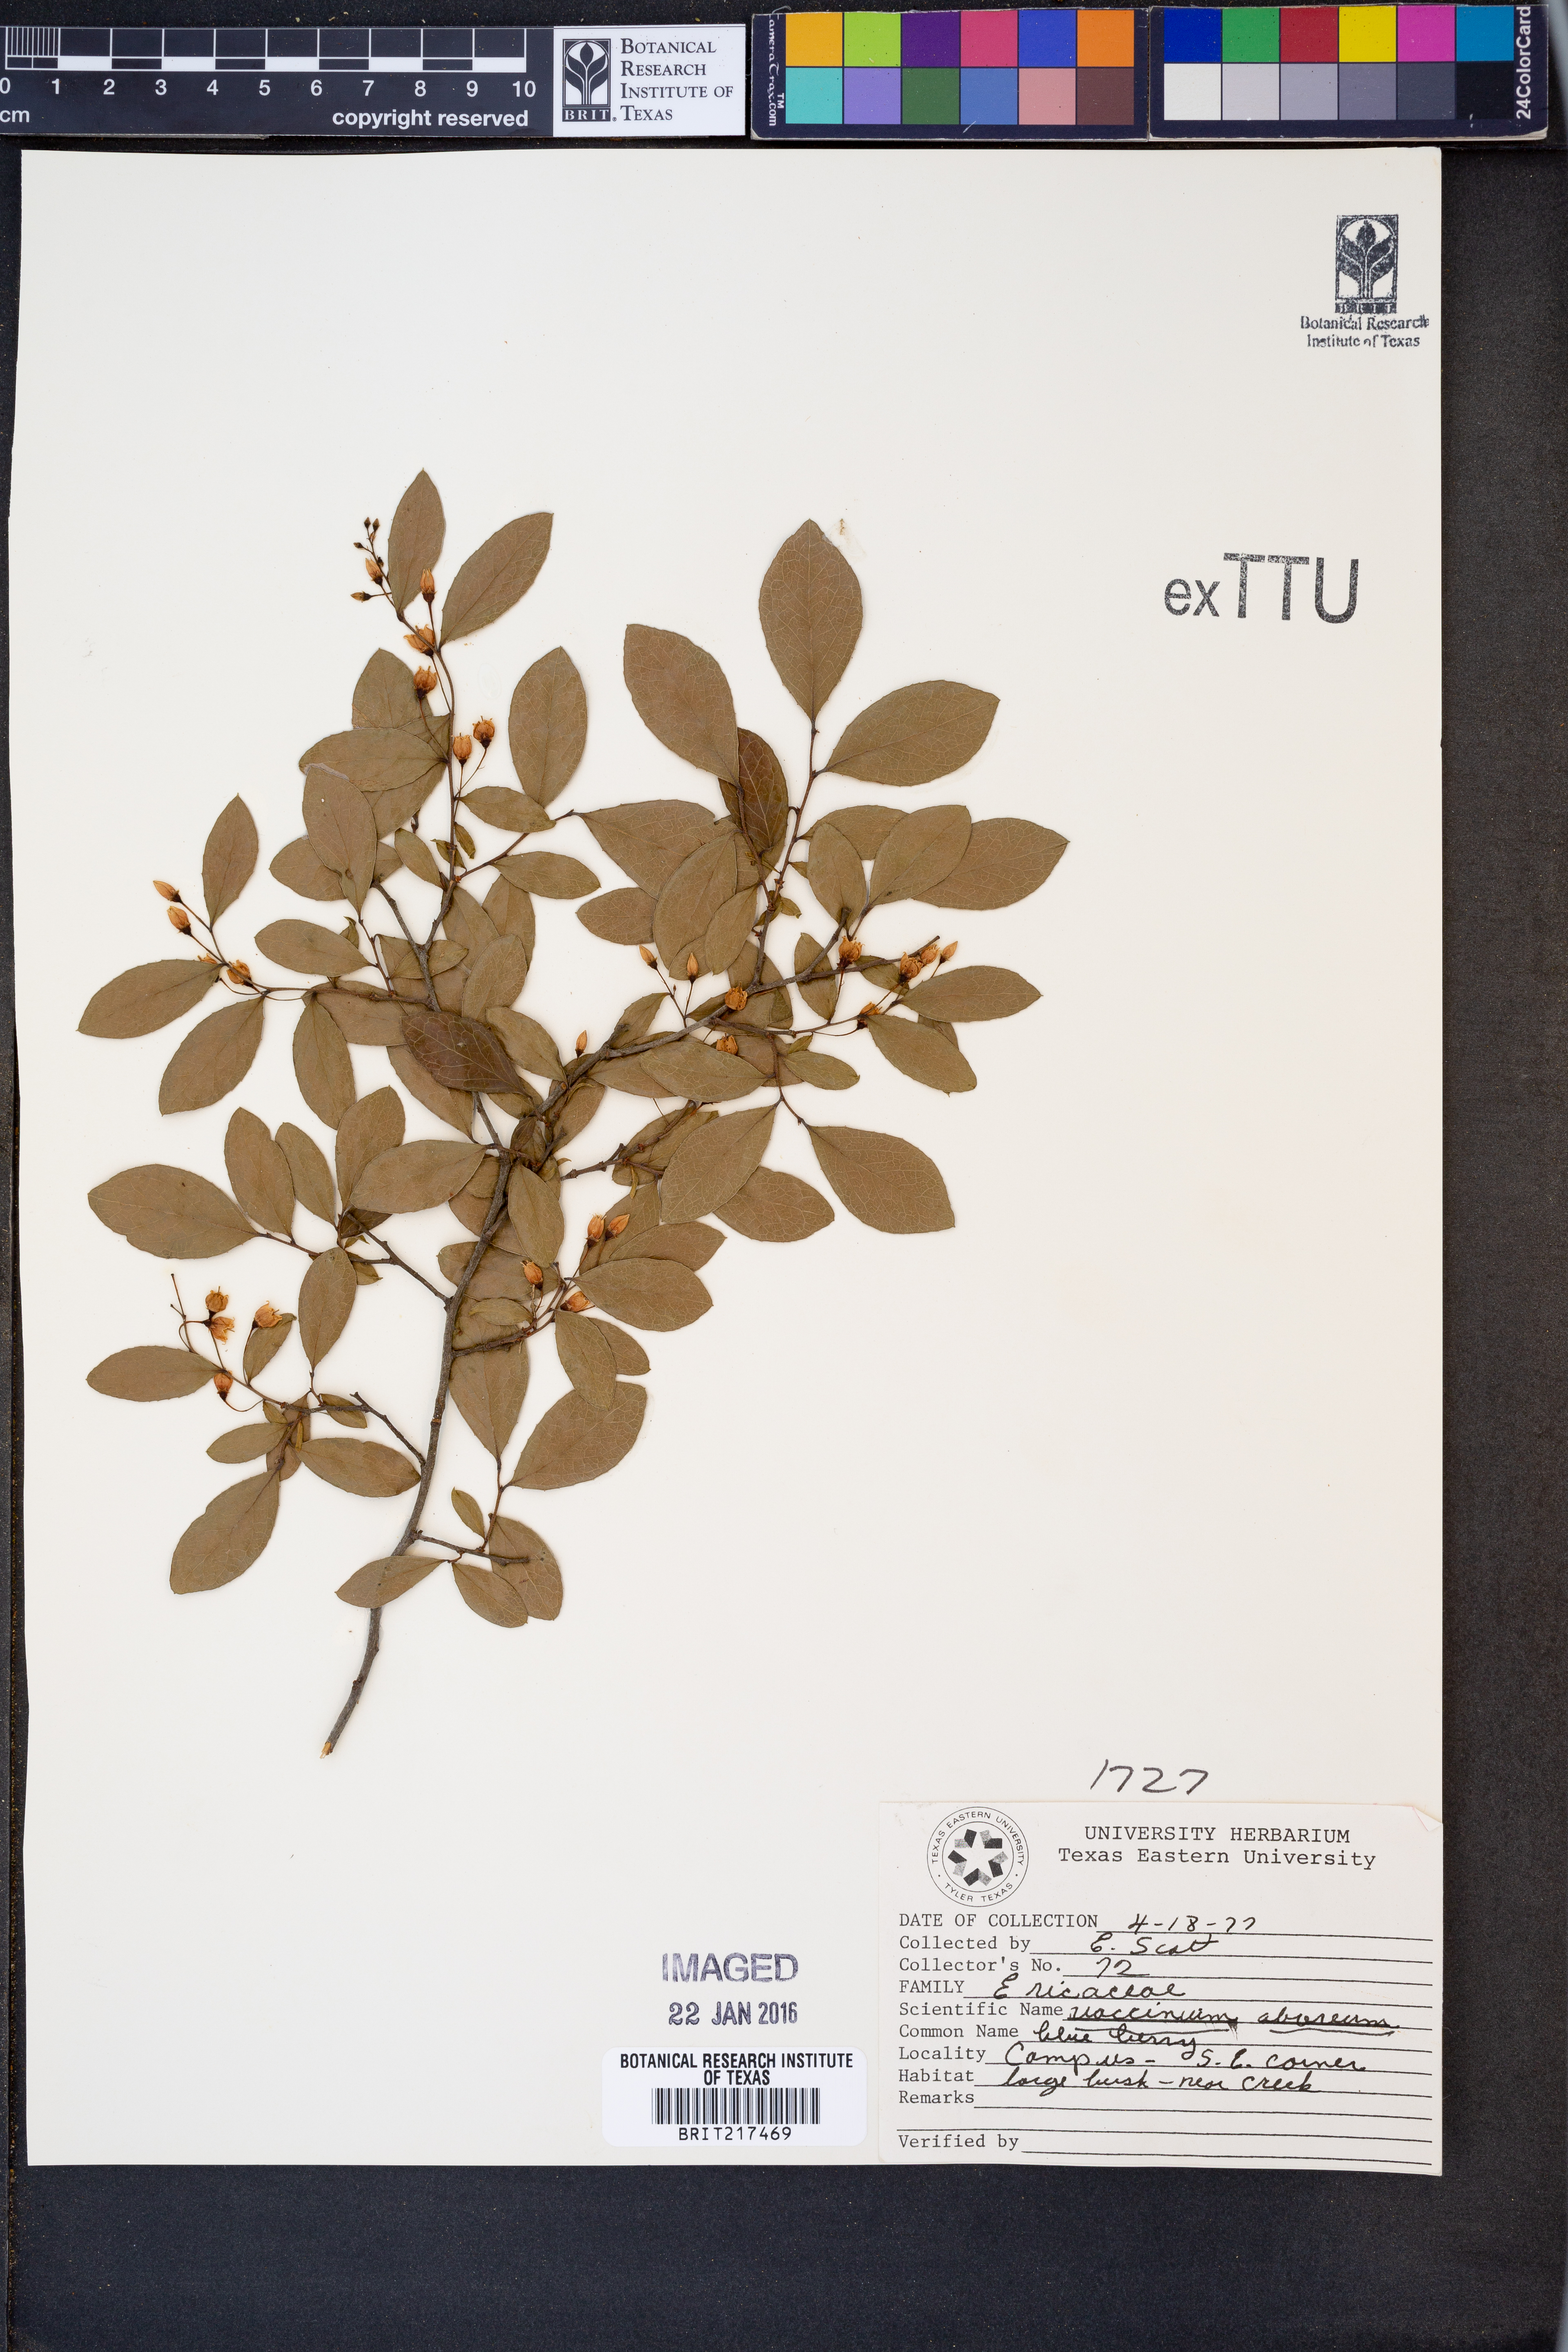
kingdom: Plantae
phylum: Tracheophyta
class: Magnoliopsida
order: Ericales
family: Ericaceae
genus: Vaccinium
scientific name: Vaccinium arboreum
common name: Farkleberry
